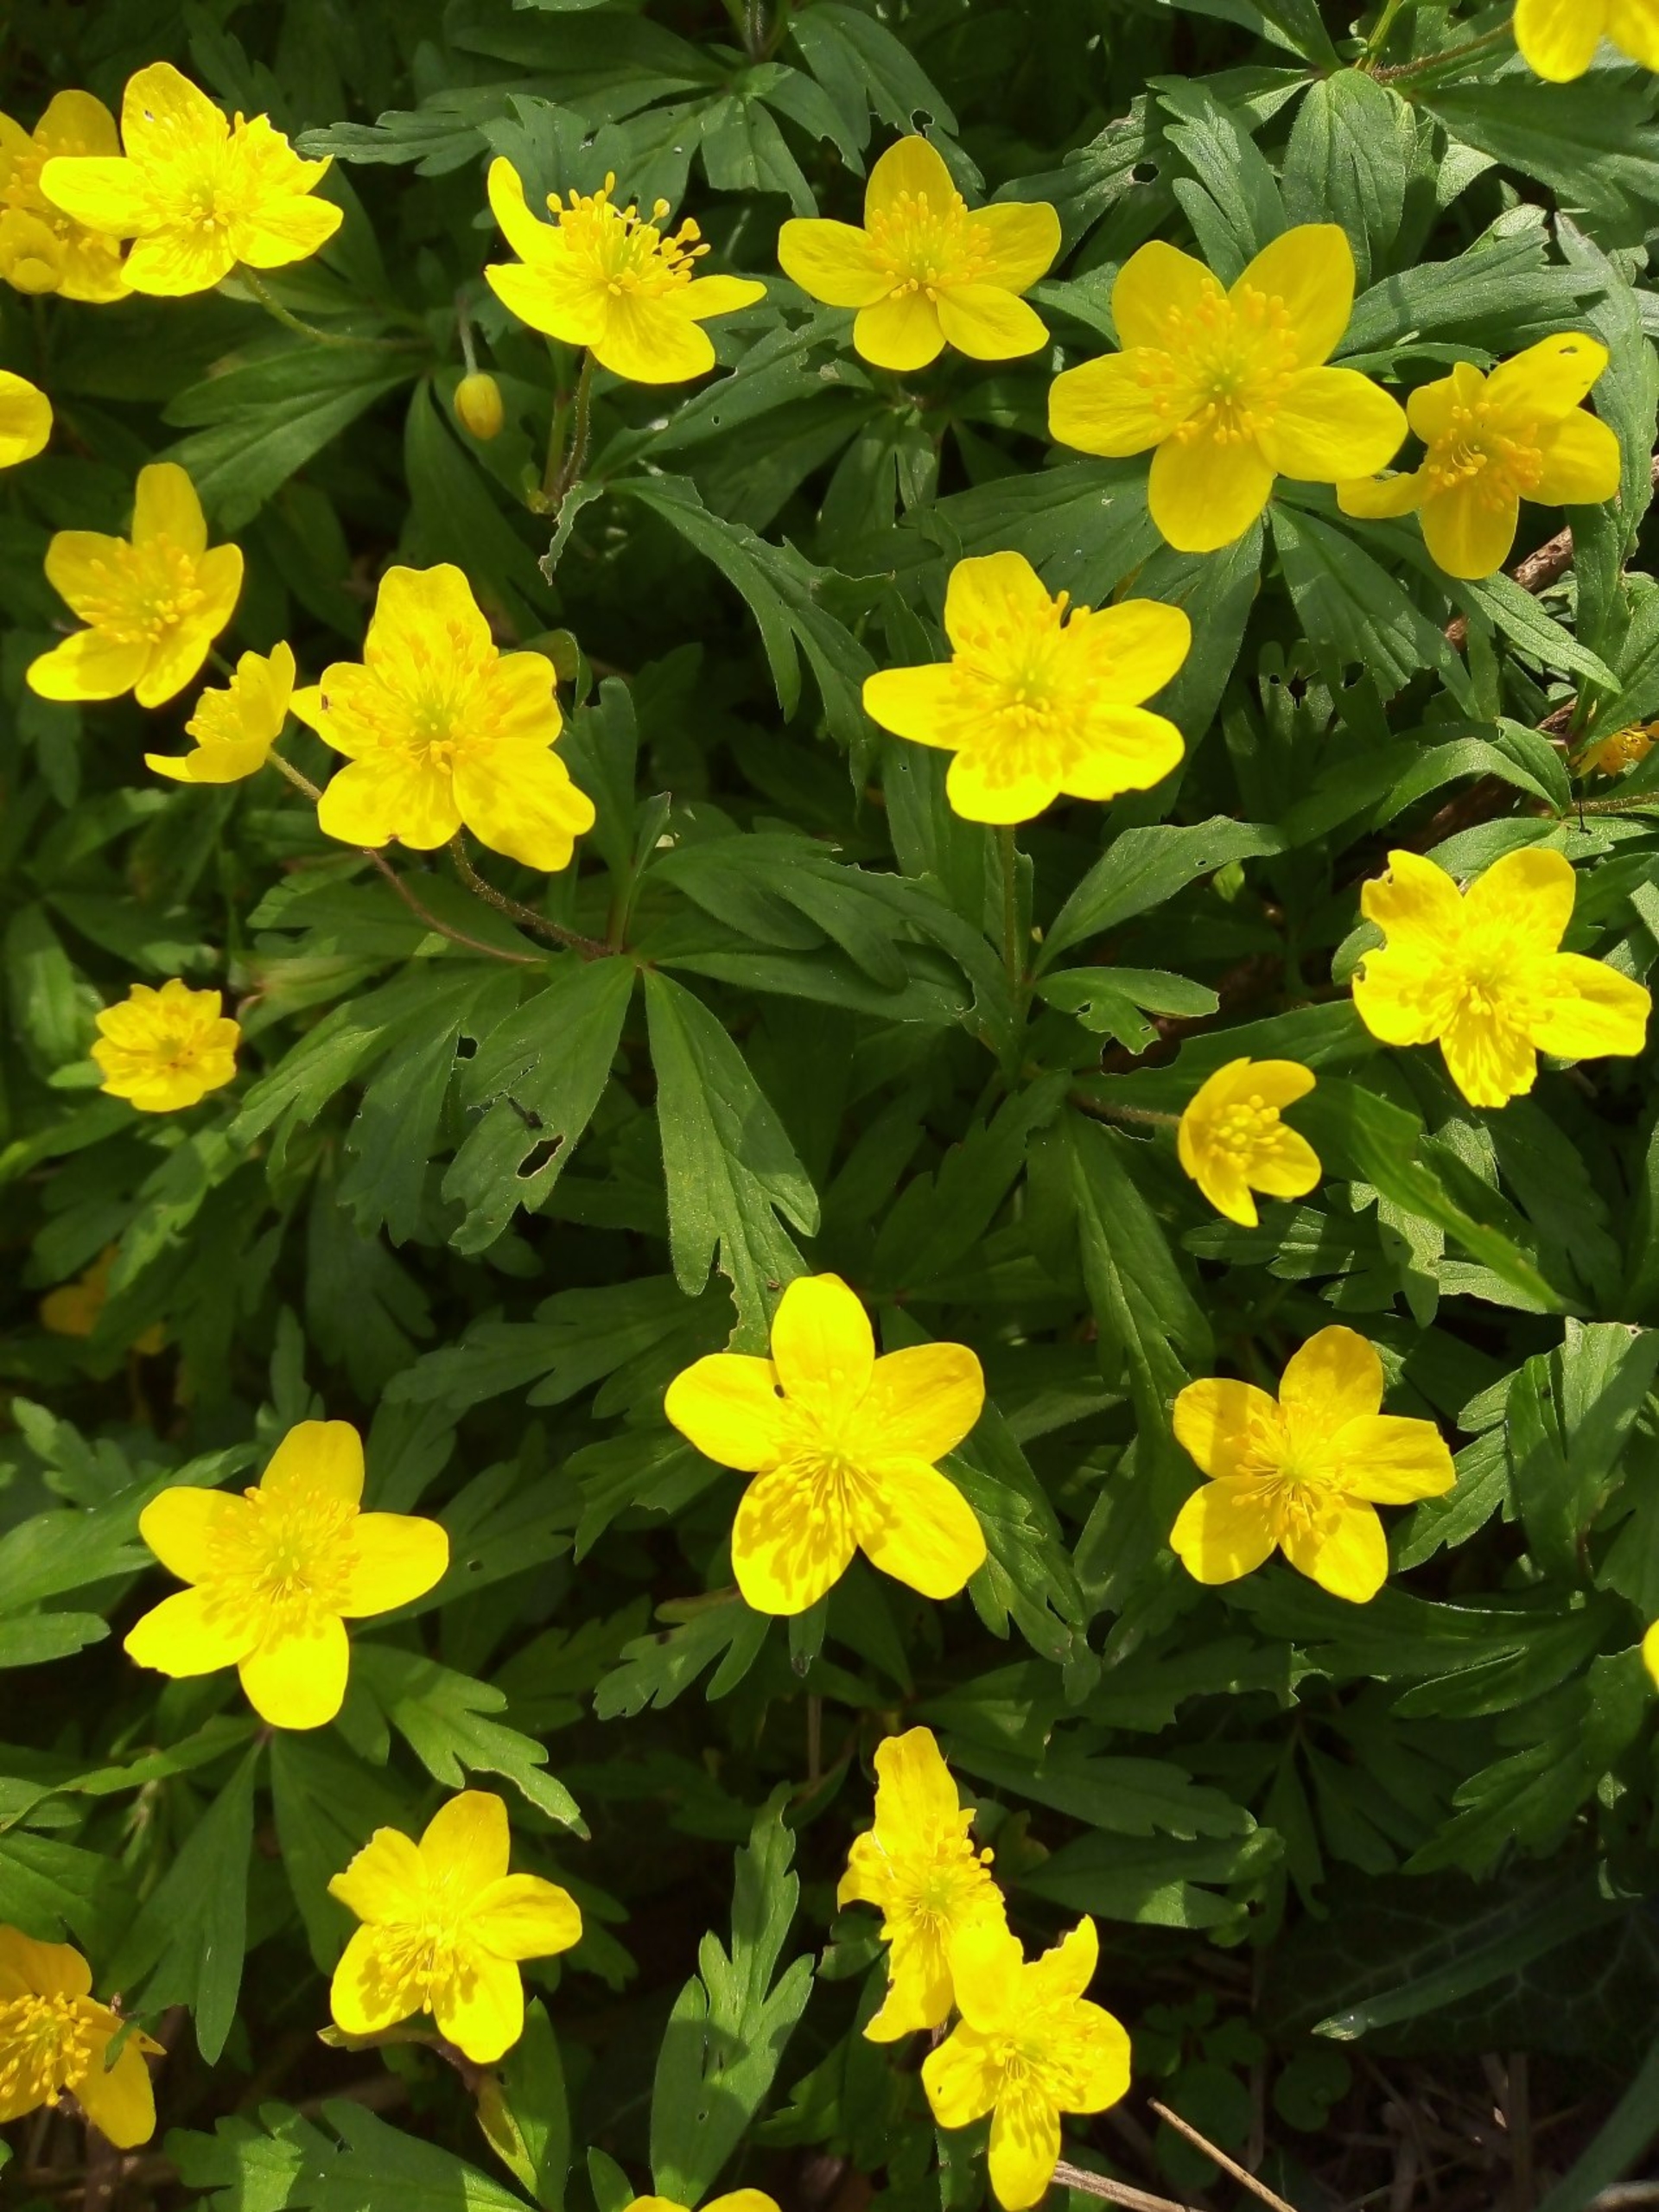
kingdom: Plantae
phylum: Tracheophyta
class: Magnoliopsida
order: Ranunculales
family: Ranunculaceae
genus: Anemone
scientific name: Anemone ranunculoides
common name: Gul anemone
